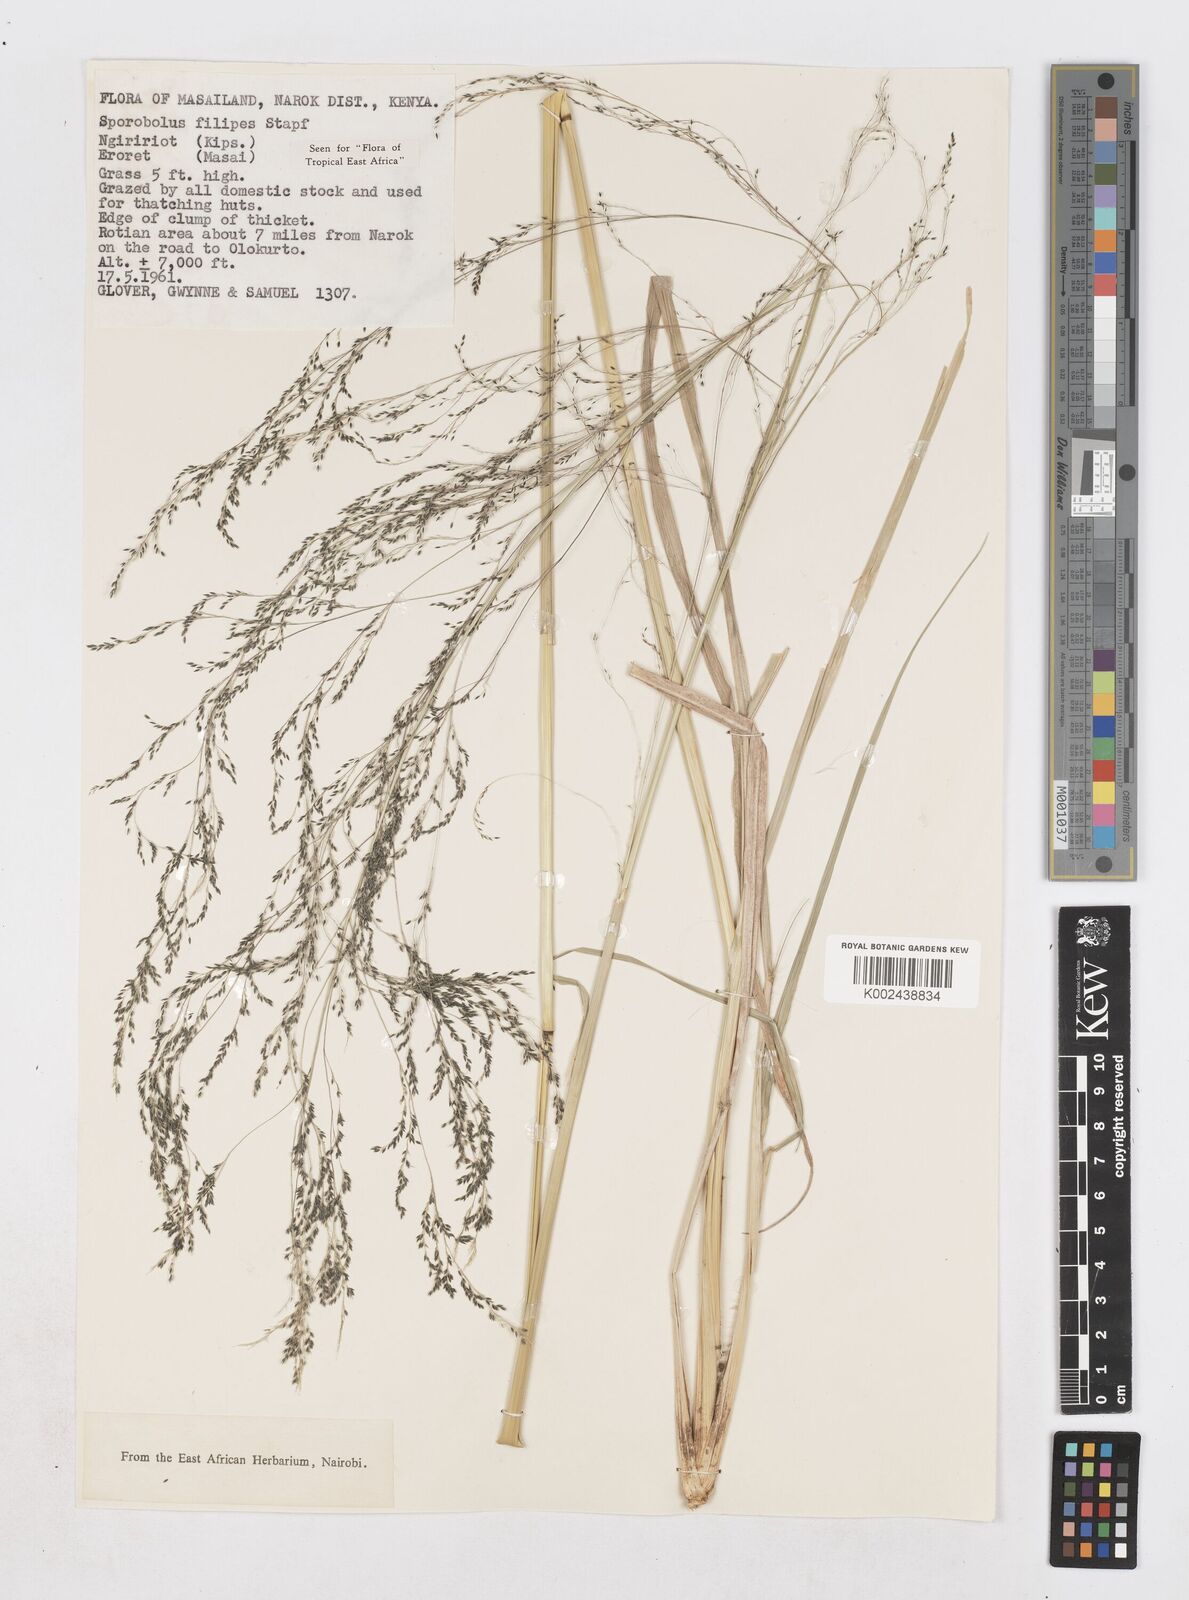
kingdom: Plantae
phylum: Tracheophyta
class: Liliopsida
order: Poales
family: Poaceae
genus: Sporobolus
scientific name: Sporobolus agrostoides
